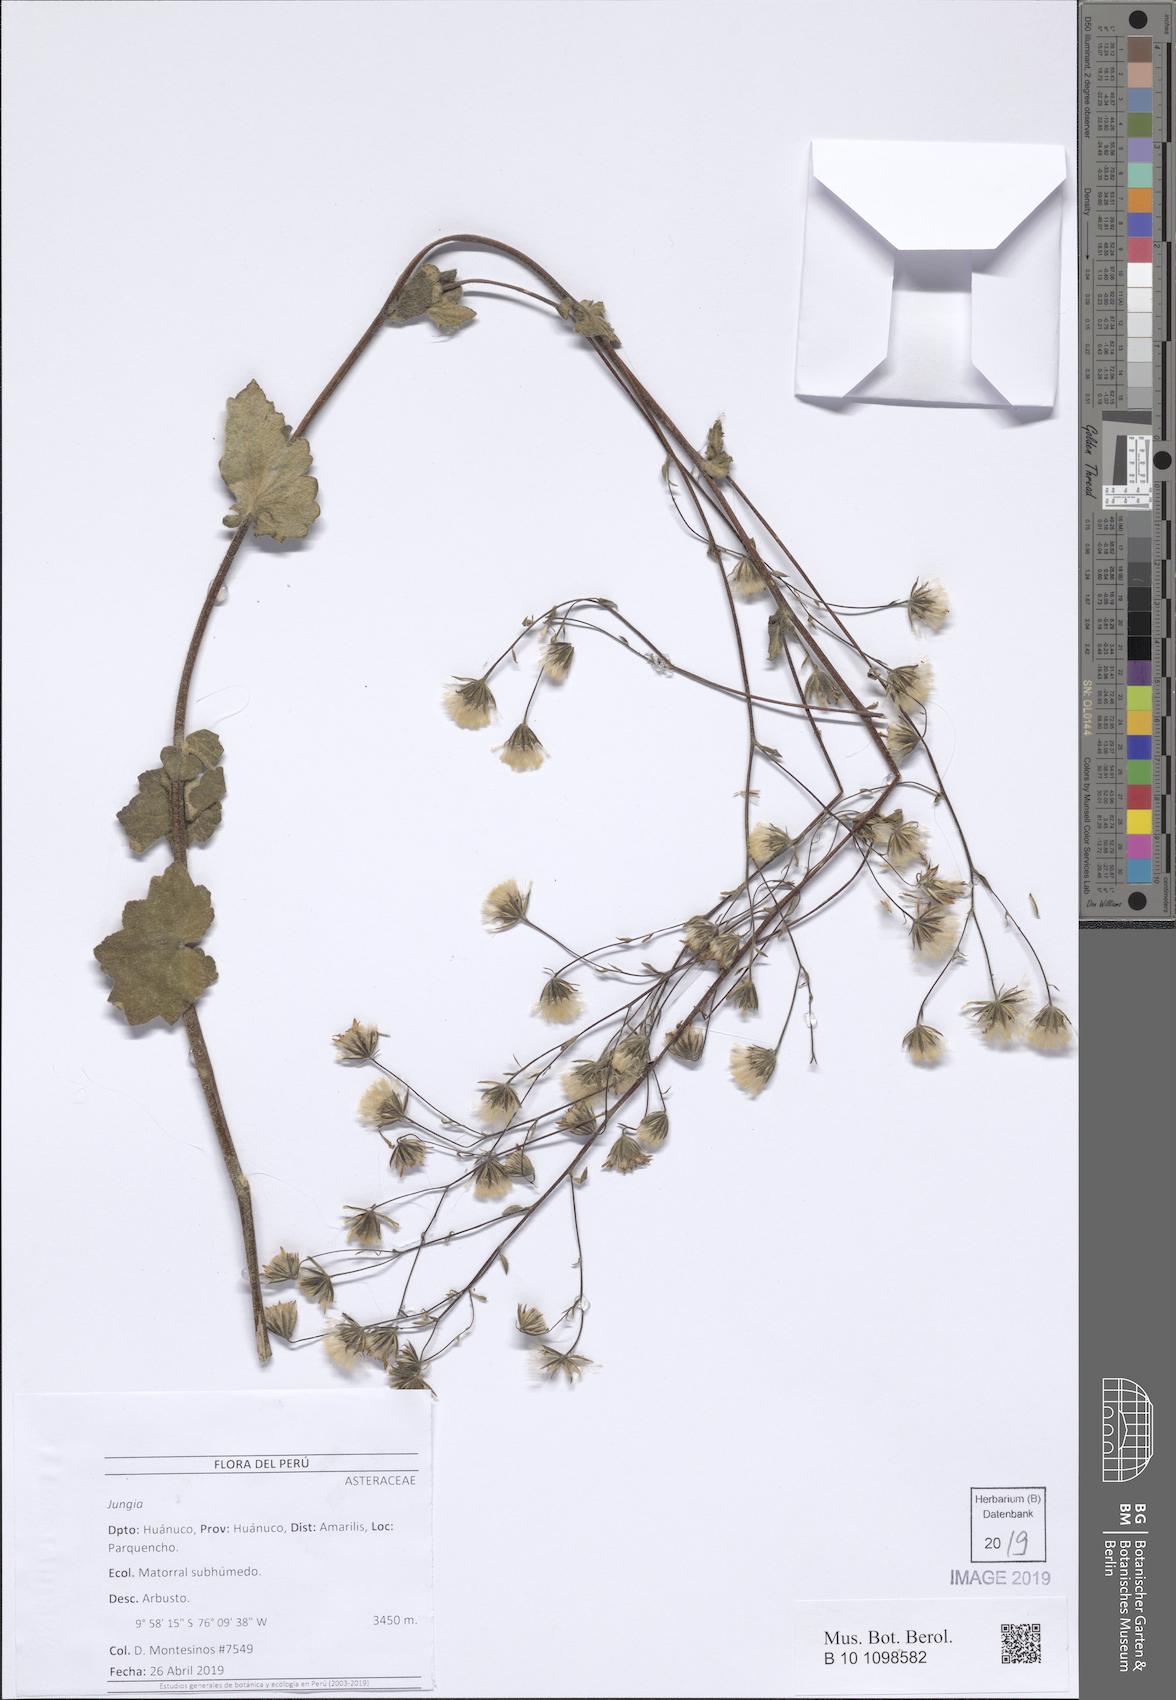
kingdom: Plantae
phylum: Tracheophyta
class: Magnoliopsida
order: Asterales
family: Asteraceae
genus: Jungia
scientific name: Jungia rugosa
